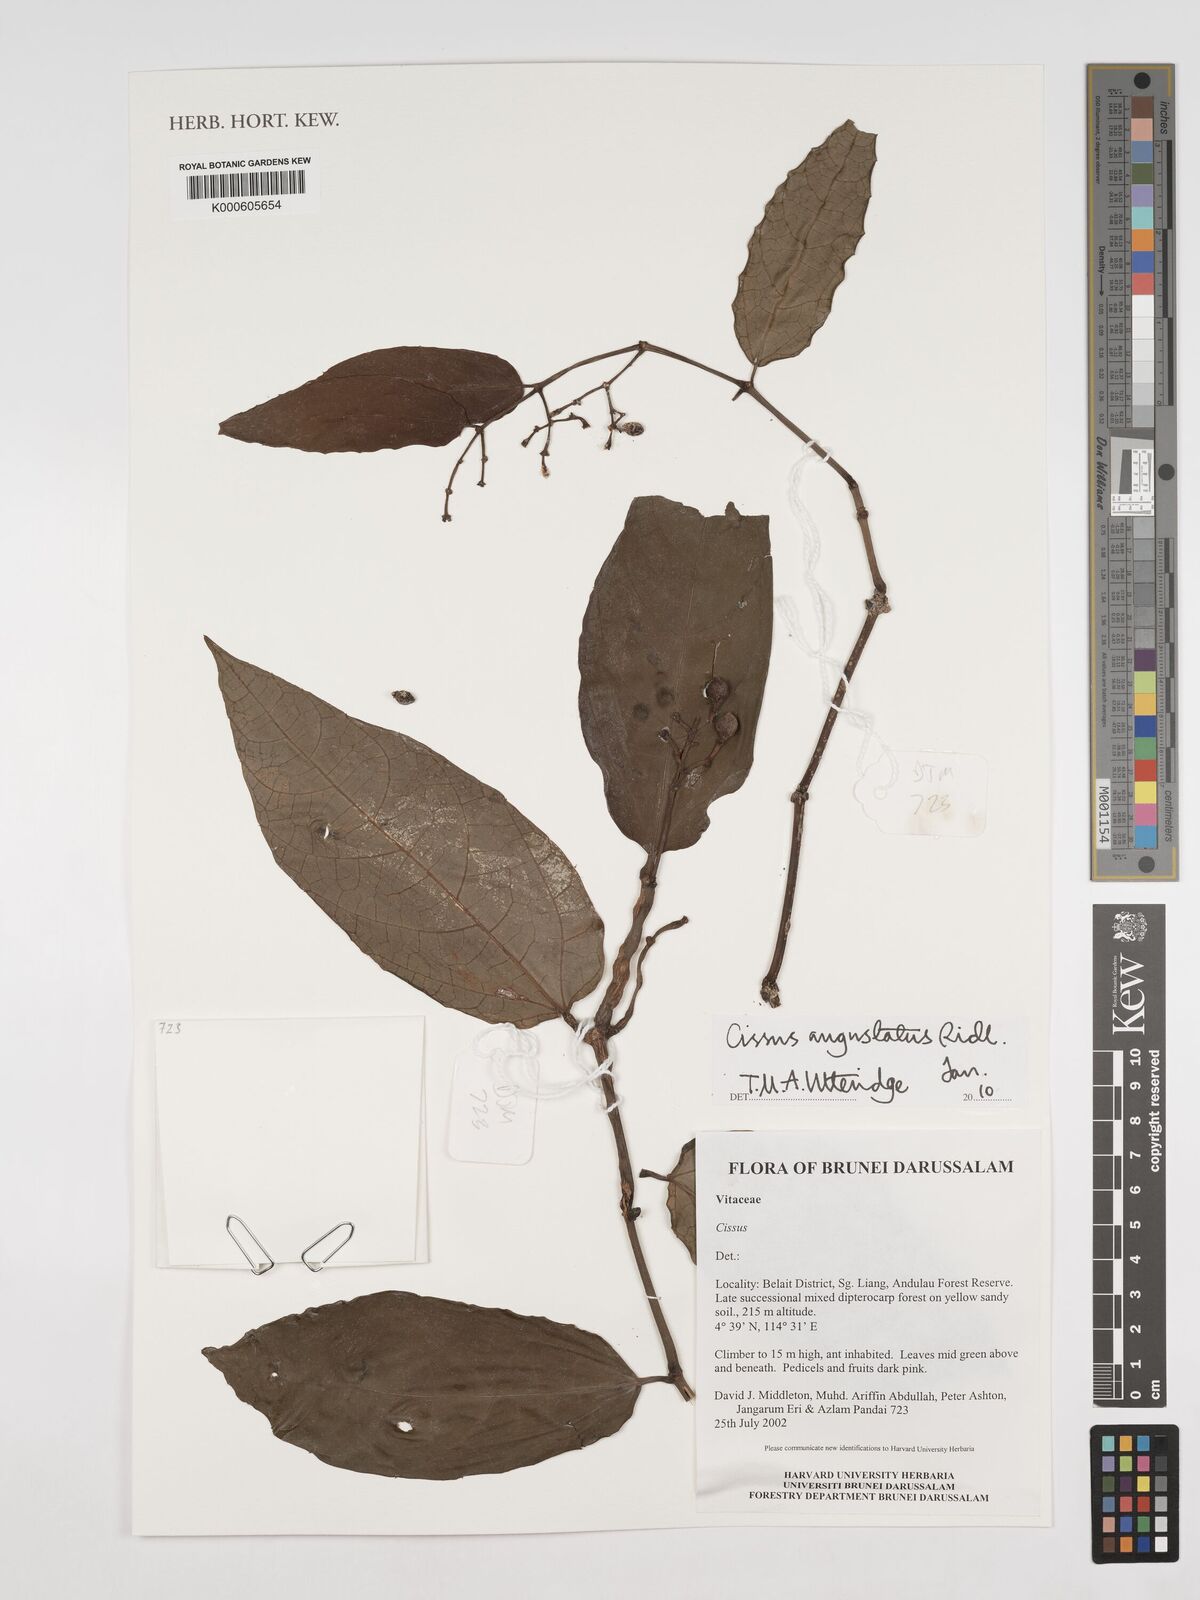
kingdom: Plantae
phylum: Tracheophyta
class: Magnoliopsida
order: Vitales
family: Vitaceae
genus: Cissus
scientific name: Cissus angustata
